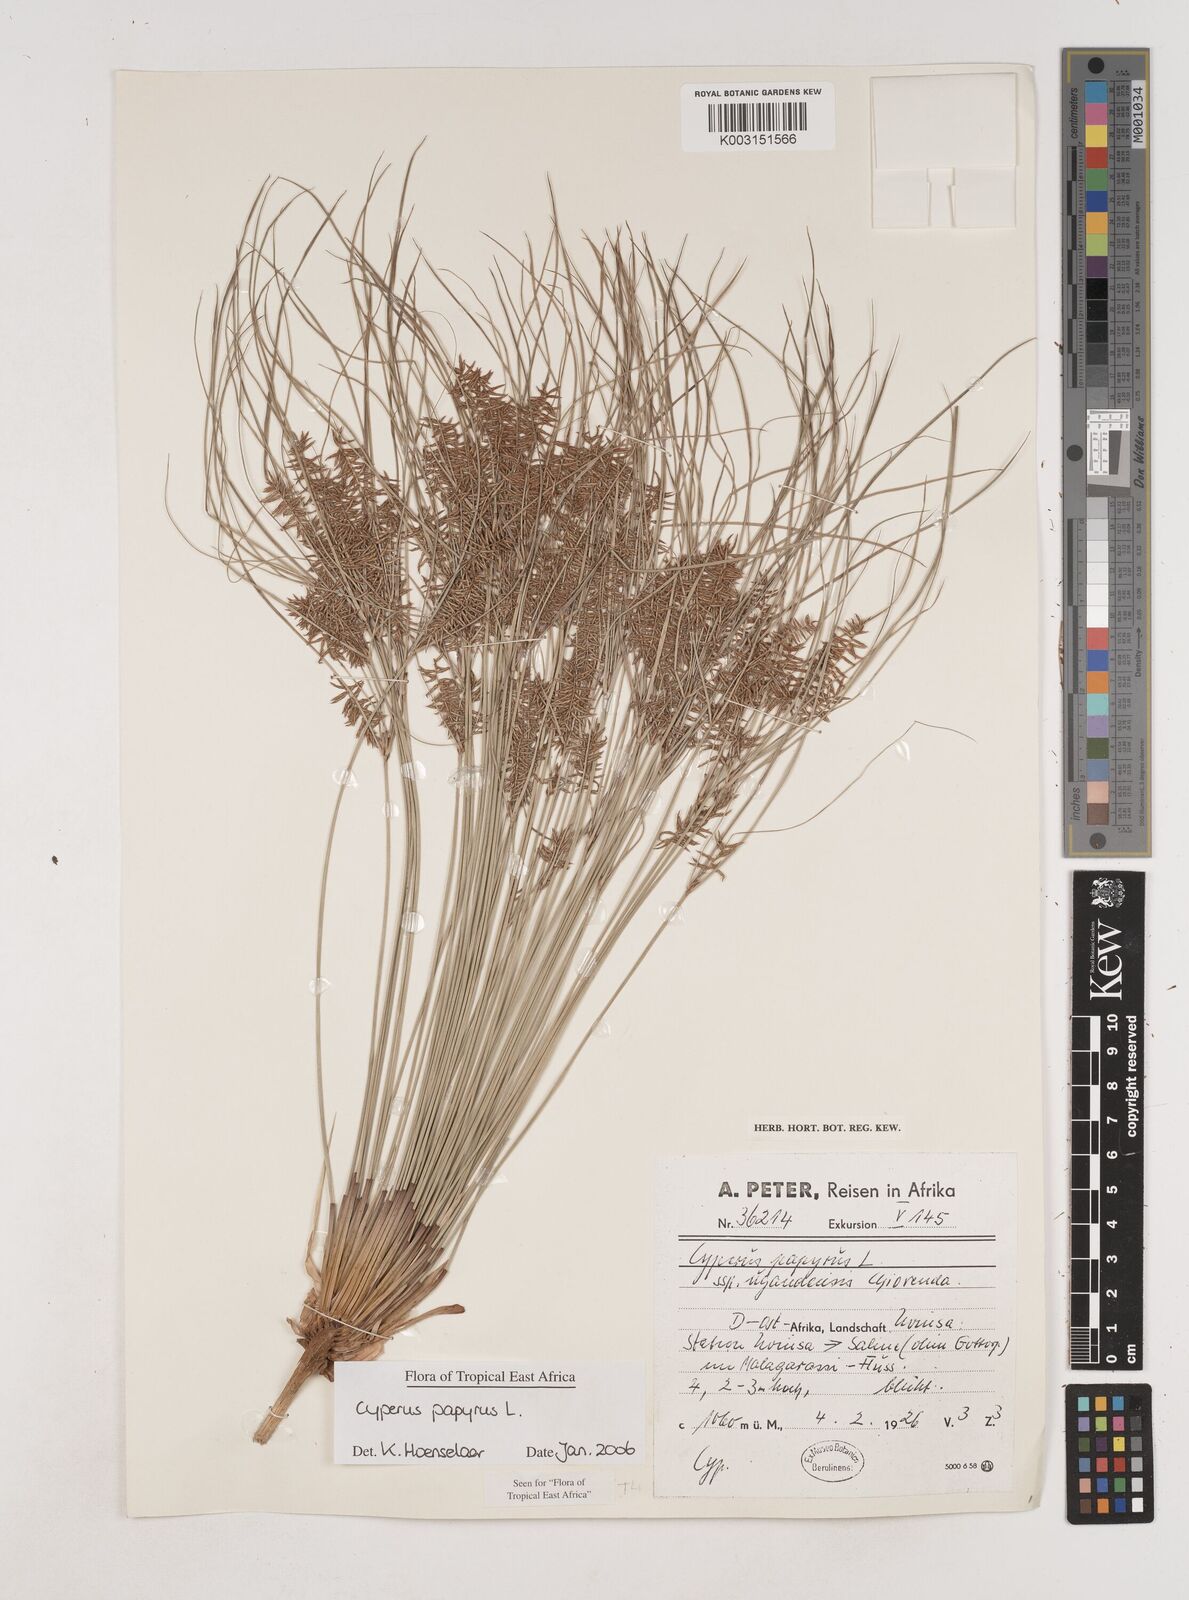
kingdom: Plantae
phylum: Tracheophyta
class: Liliopsida
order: Poales
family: Cyperaceae
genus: Cyperus
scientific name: Cyperus papyrus
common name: Papyrus
